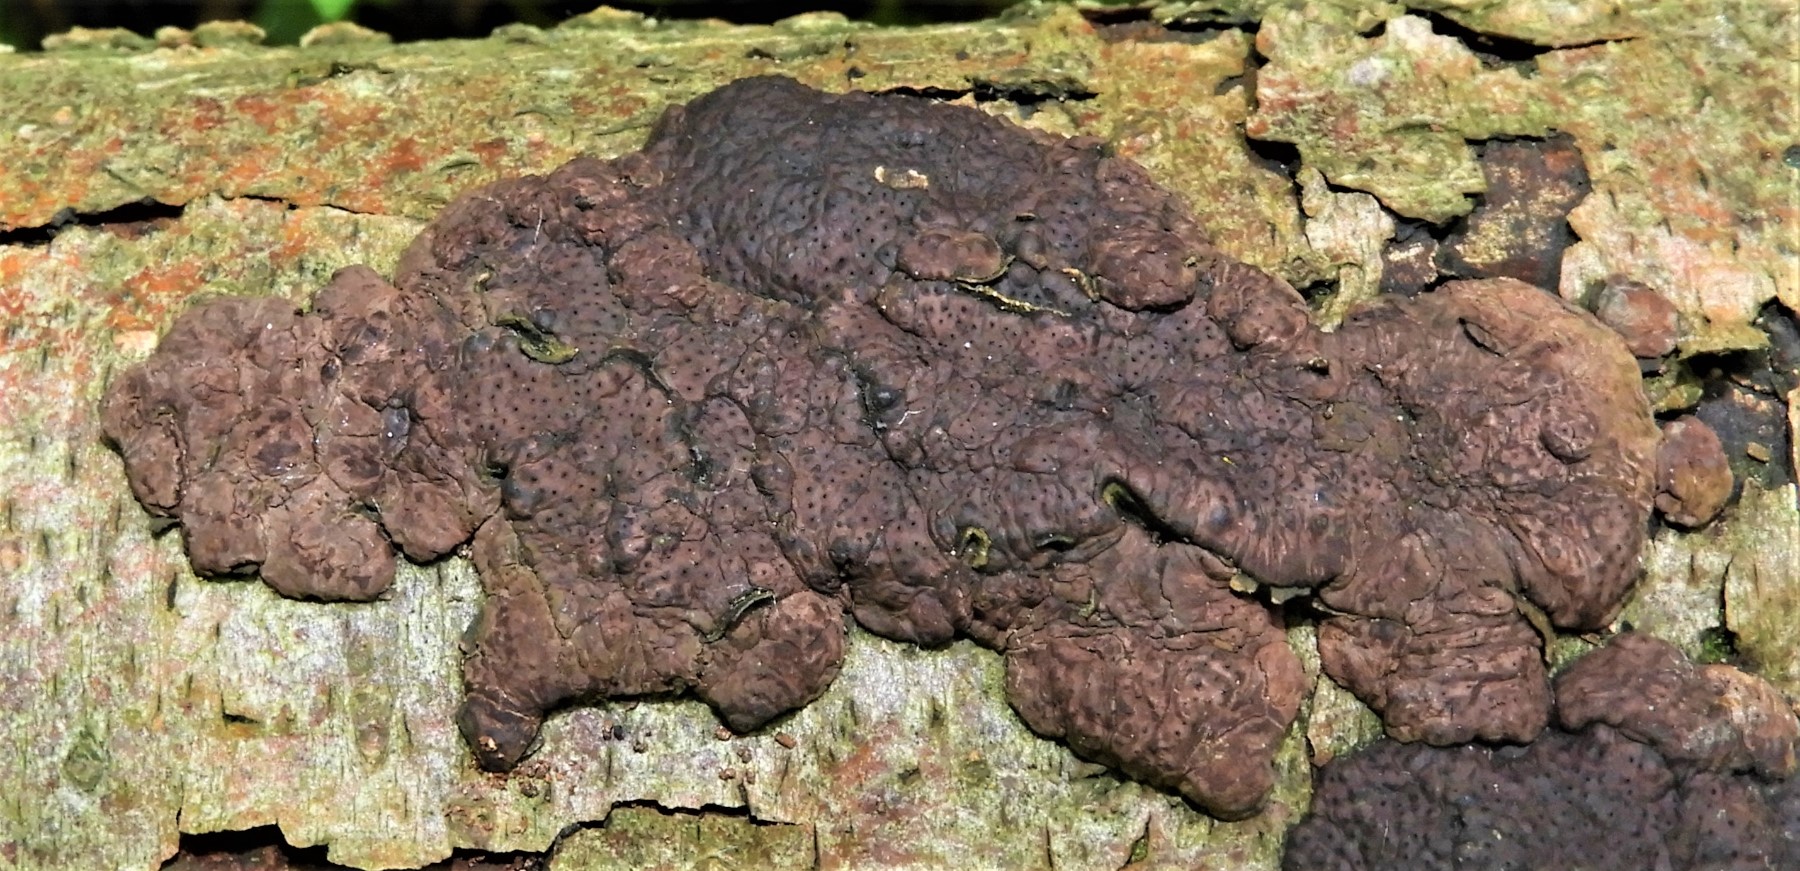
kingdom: Fungi
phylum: Ascomycota
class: Sordariomycetes
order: Xylariales
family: Hypoxylaceae
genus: Jackrogersella
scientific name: Jackrogersella multiformis
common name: foranderlig kulbær
